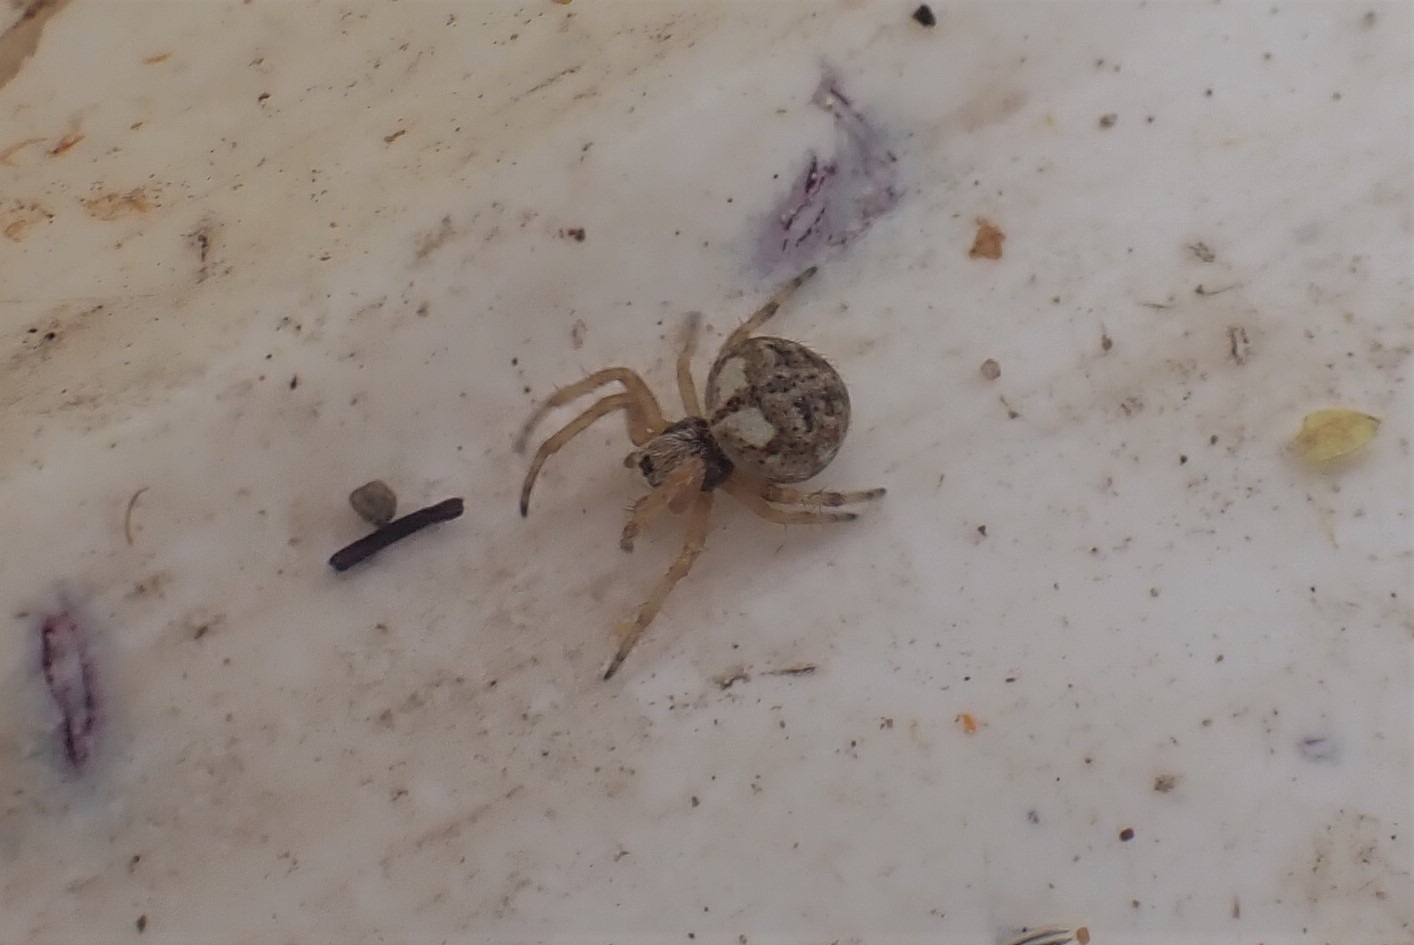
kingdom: Animalia
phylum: Arthropoda
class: Arachnida
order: Araneae
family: Araneidae
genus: Agalenatea
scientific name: Agalenatea redii
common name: Lodden hjulspinder
